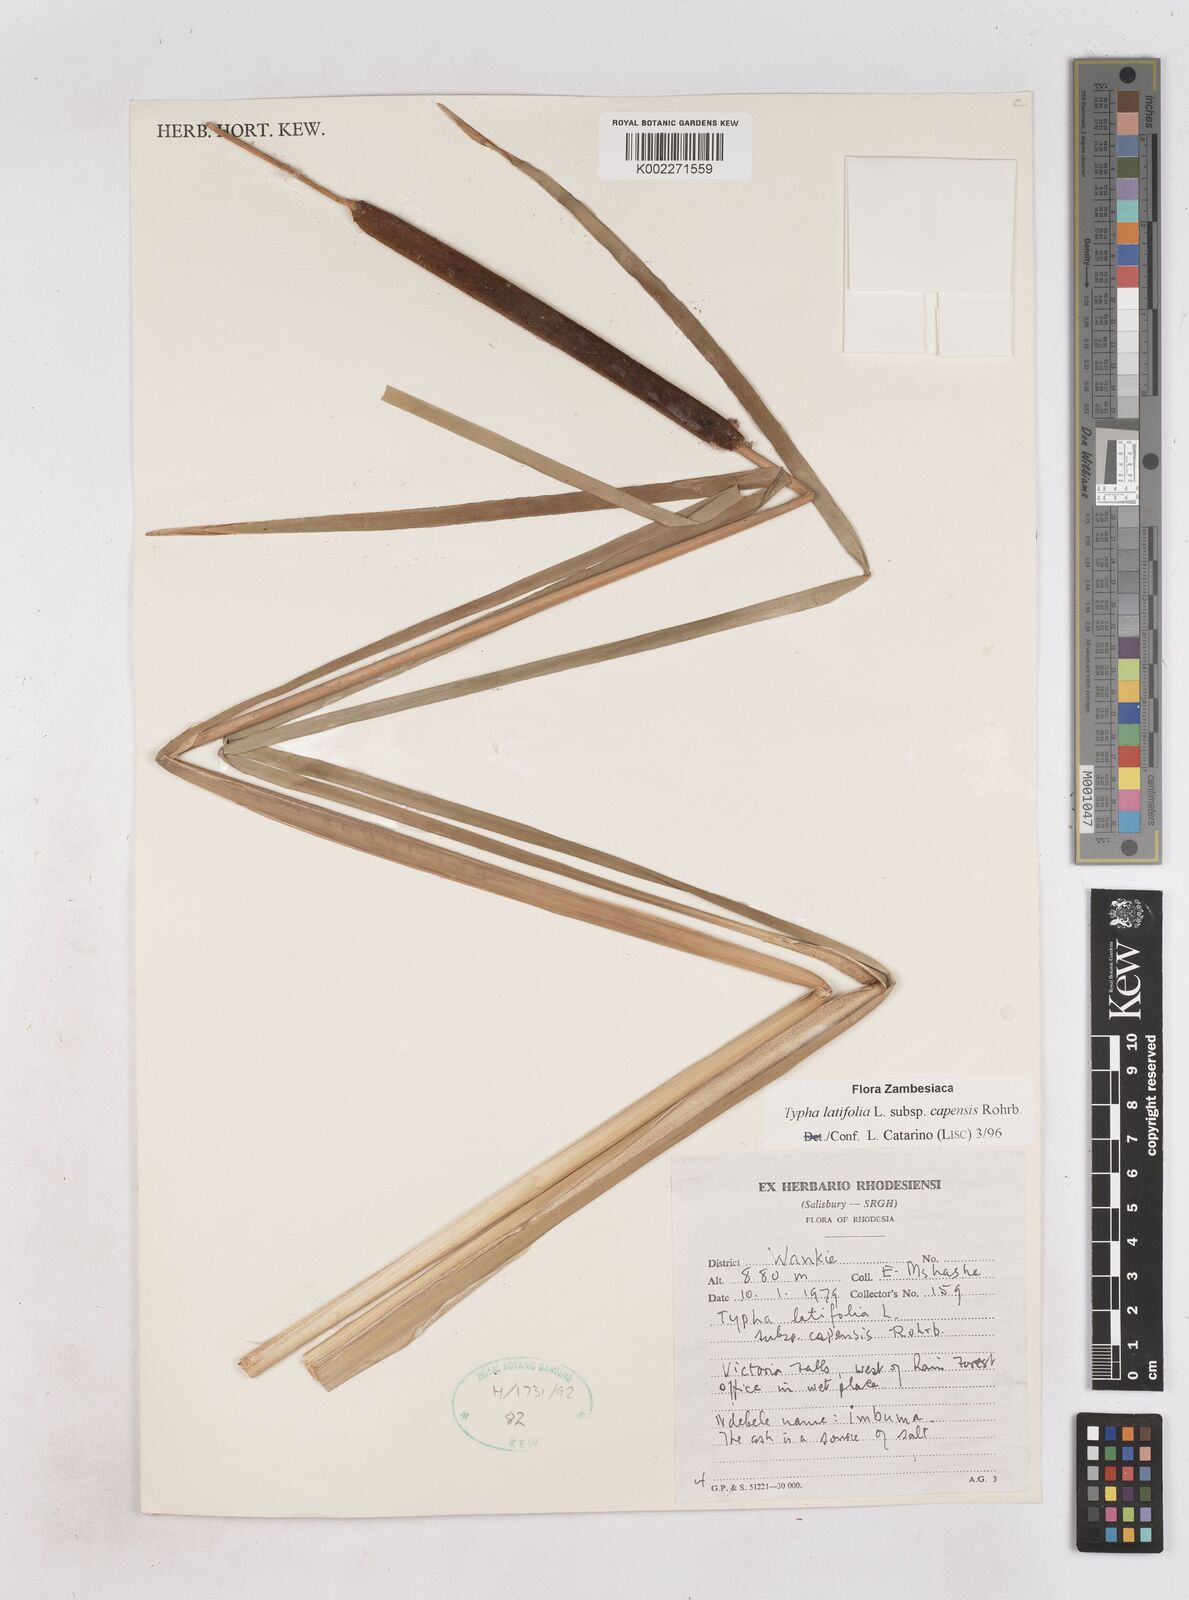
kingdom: Plantae
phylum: Tracheophyta
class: Liliopsida
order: Poales
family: Typhaceae
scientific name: Typhaceae
